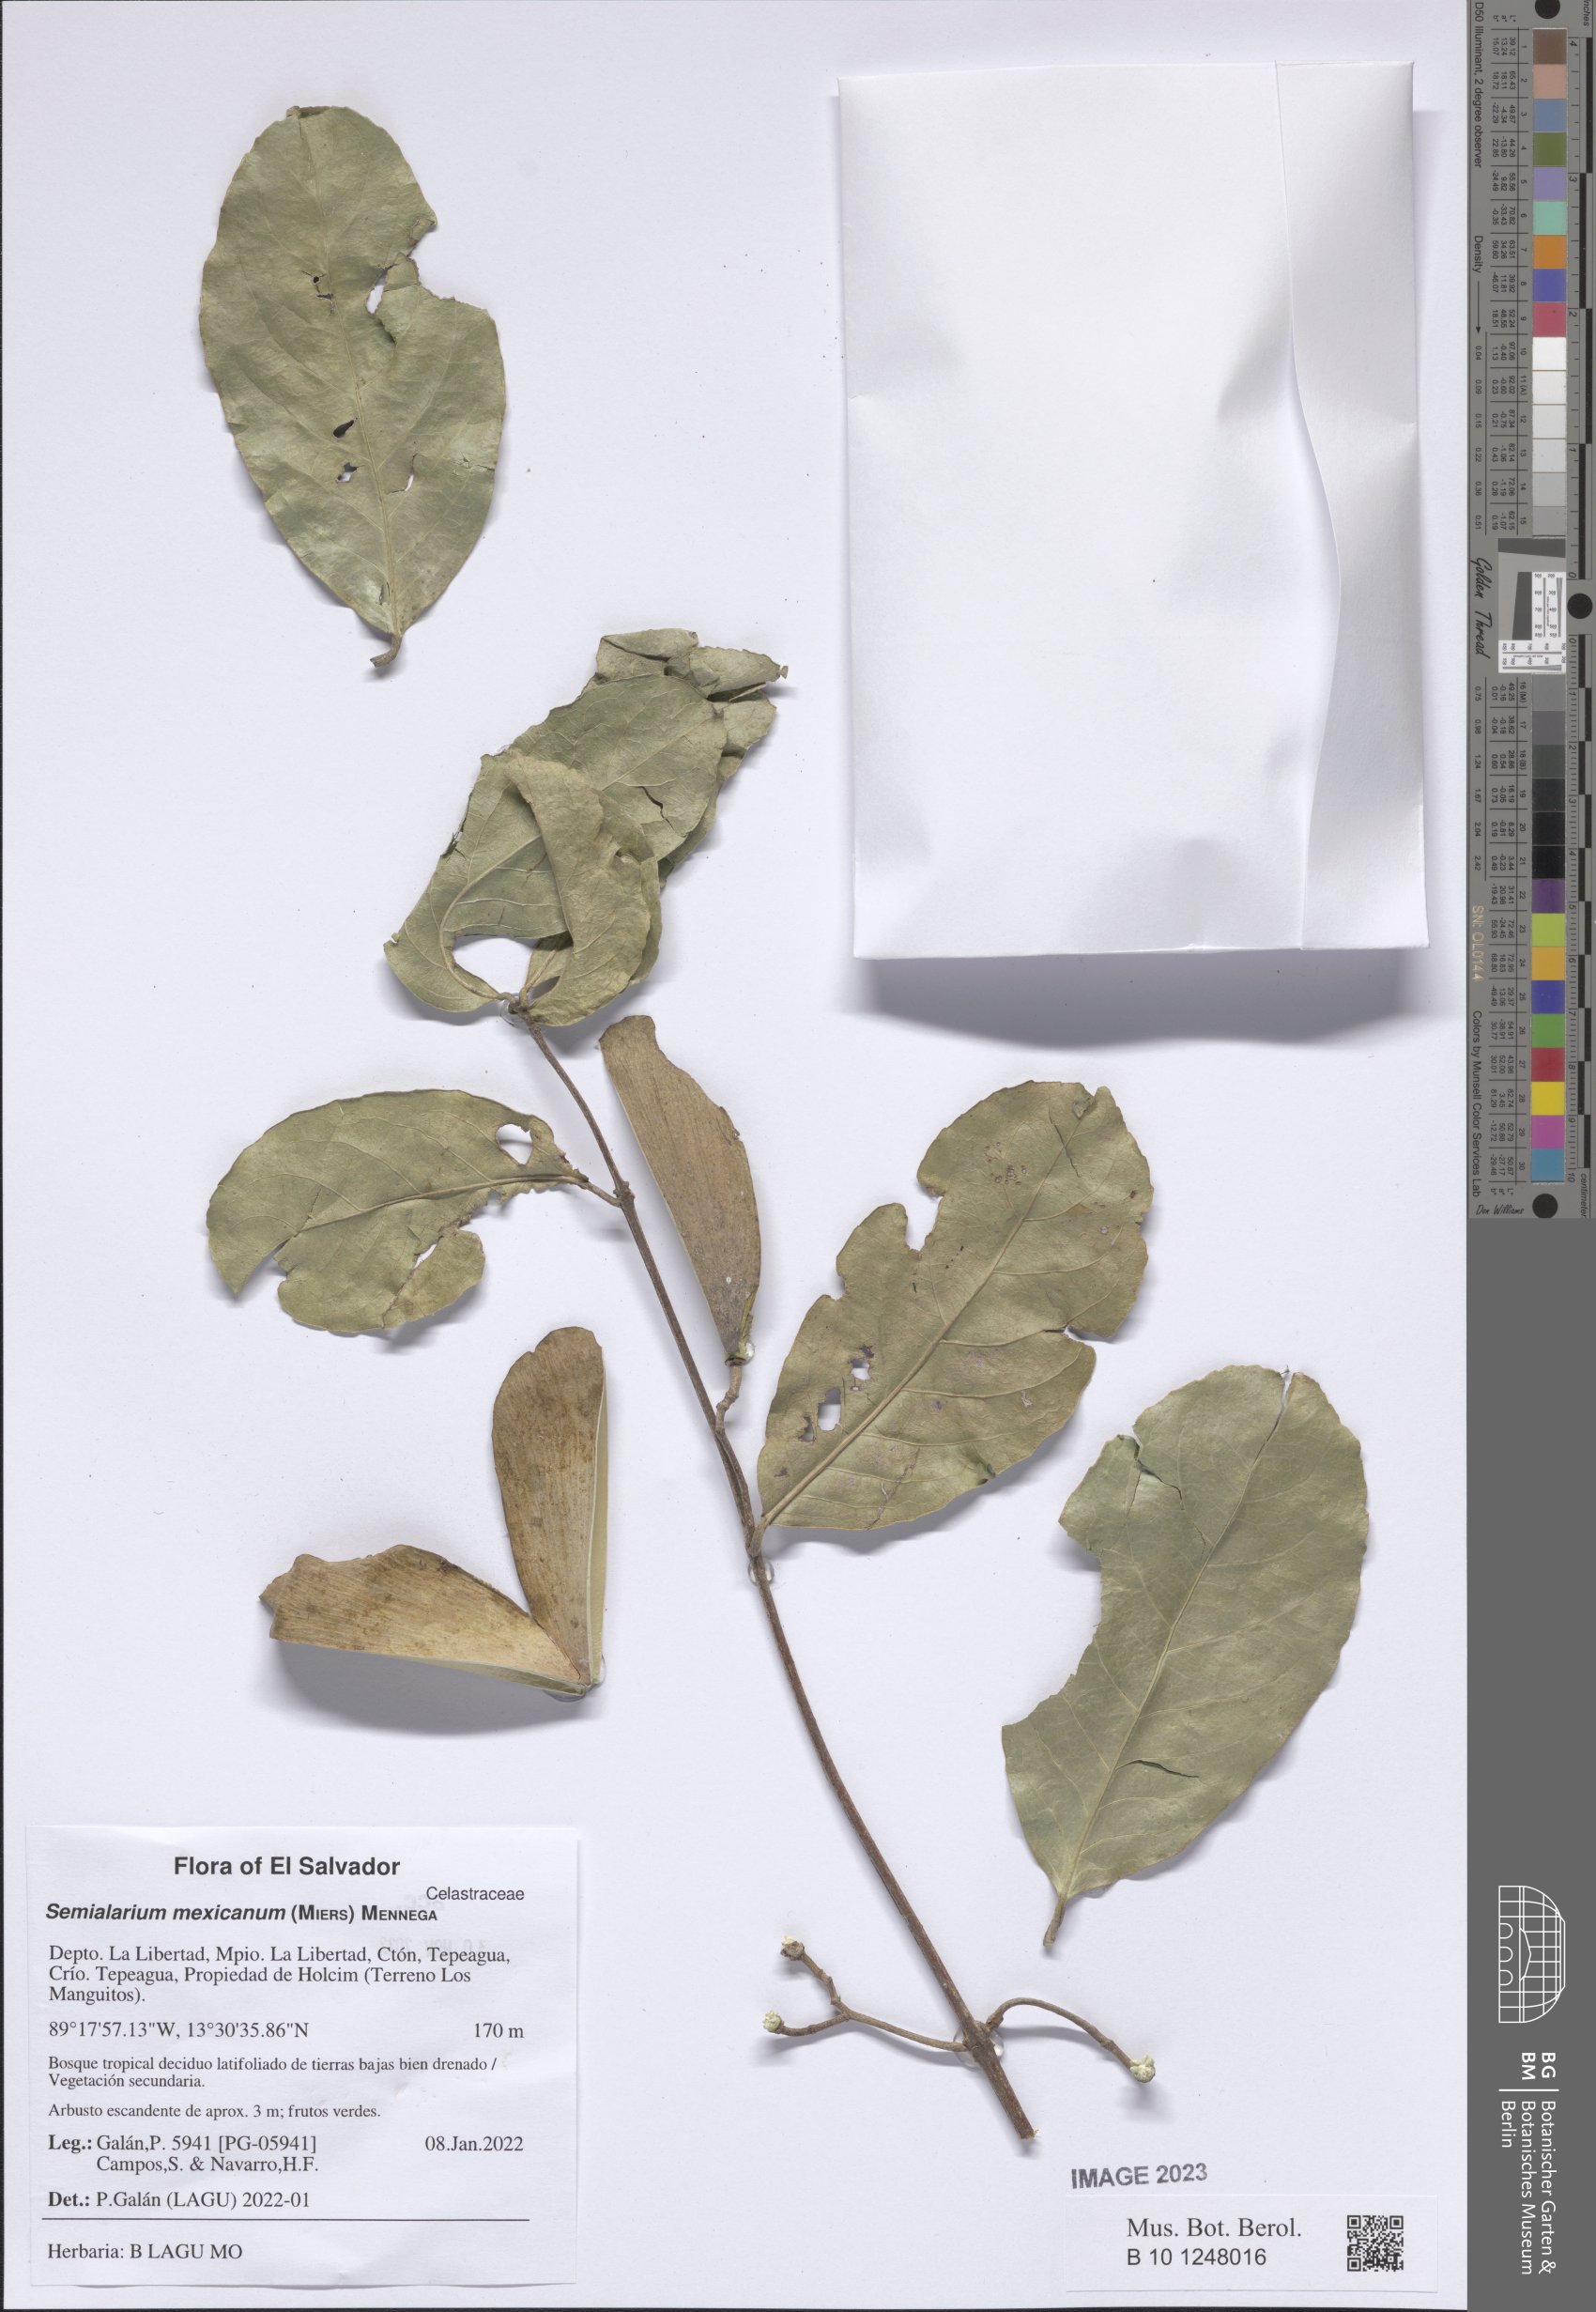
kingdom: Plantae
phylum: Tracheophyta
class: Magnoliopsida
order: Celastrales
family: Celastraceae
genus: Semialarium
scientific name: Semialarium mexicanum
